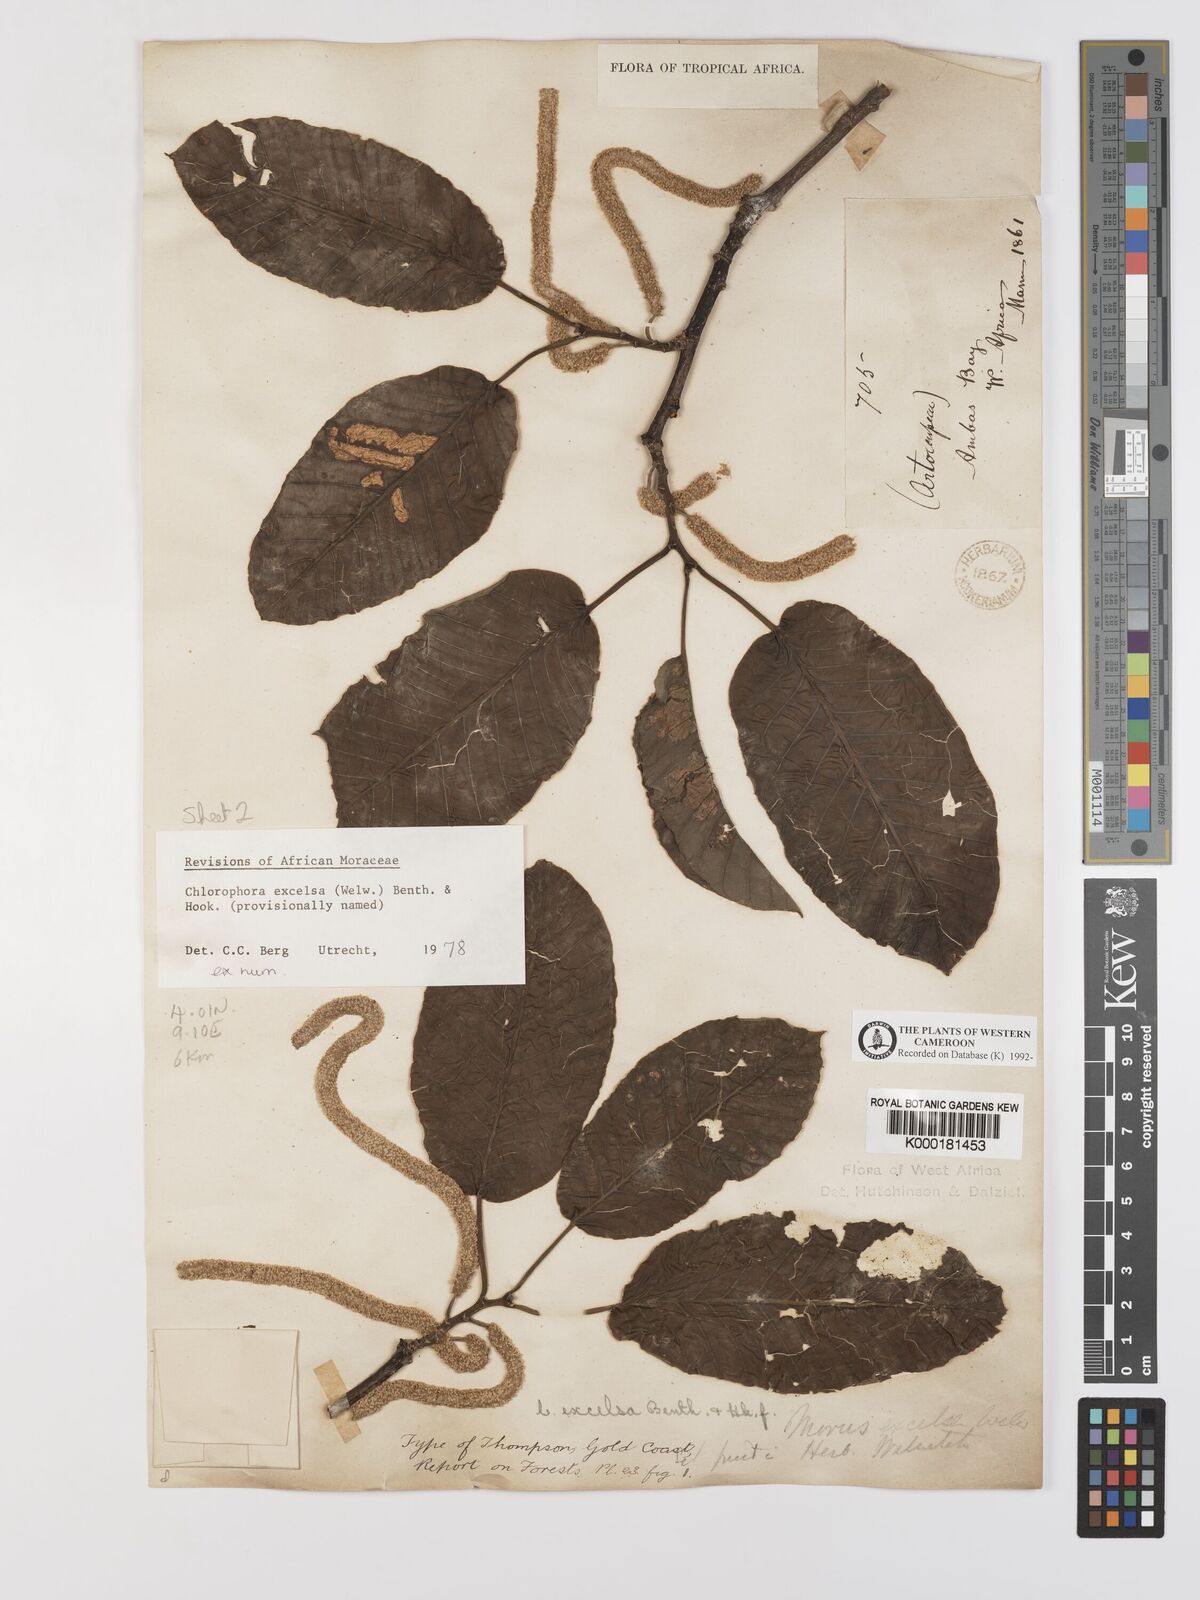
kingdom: Plantae
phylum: Tracheophyta
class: Magnoliopsida
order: Rosales
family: Moraceae
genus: Milicia
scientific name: Milicia excelsa
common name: African teak
